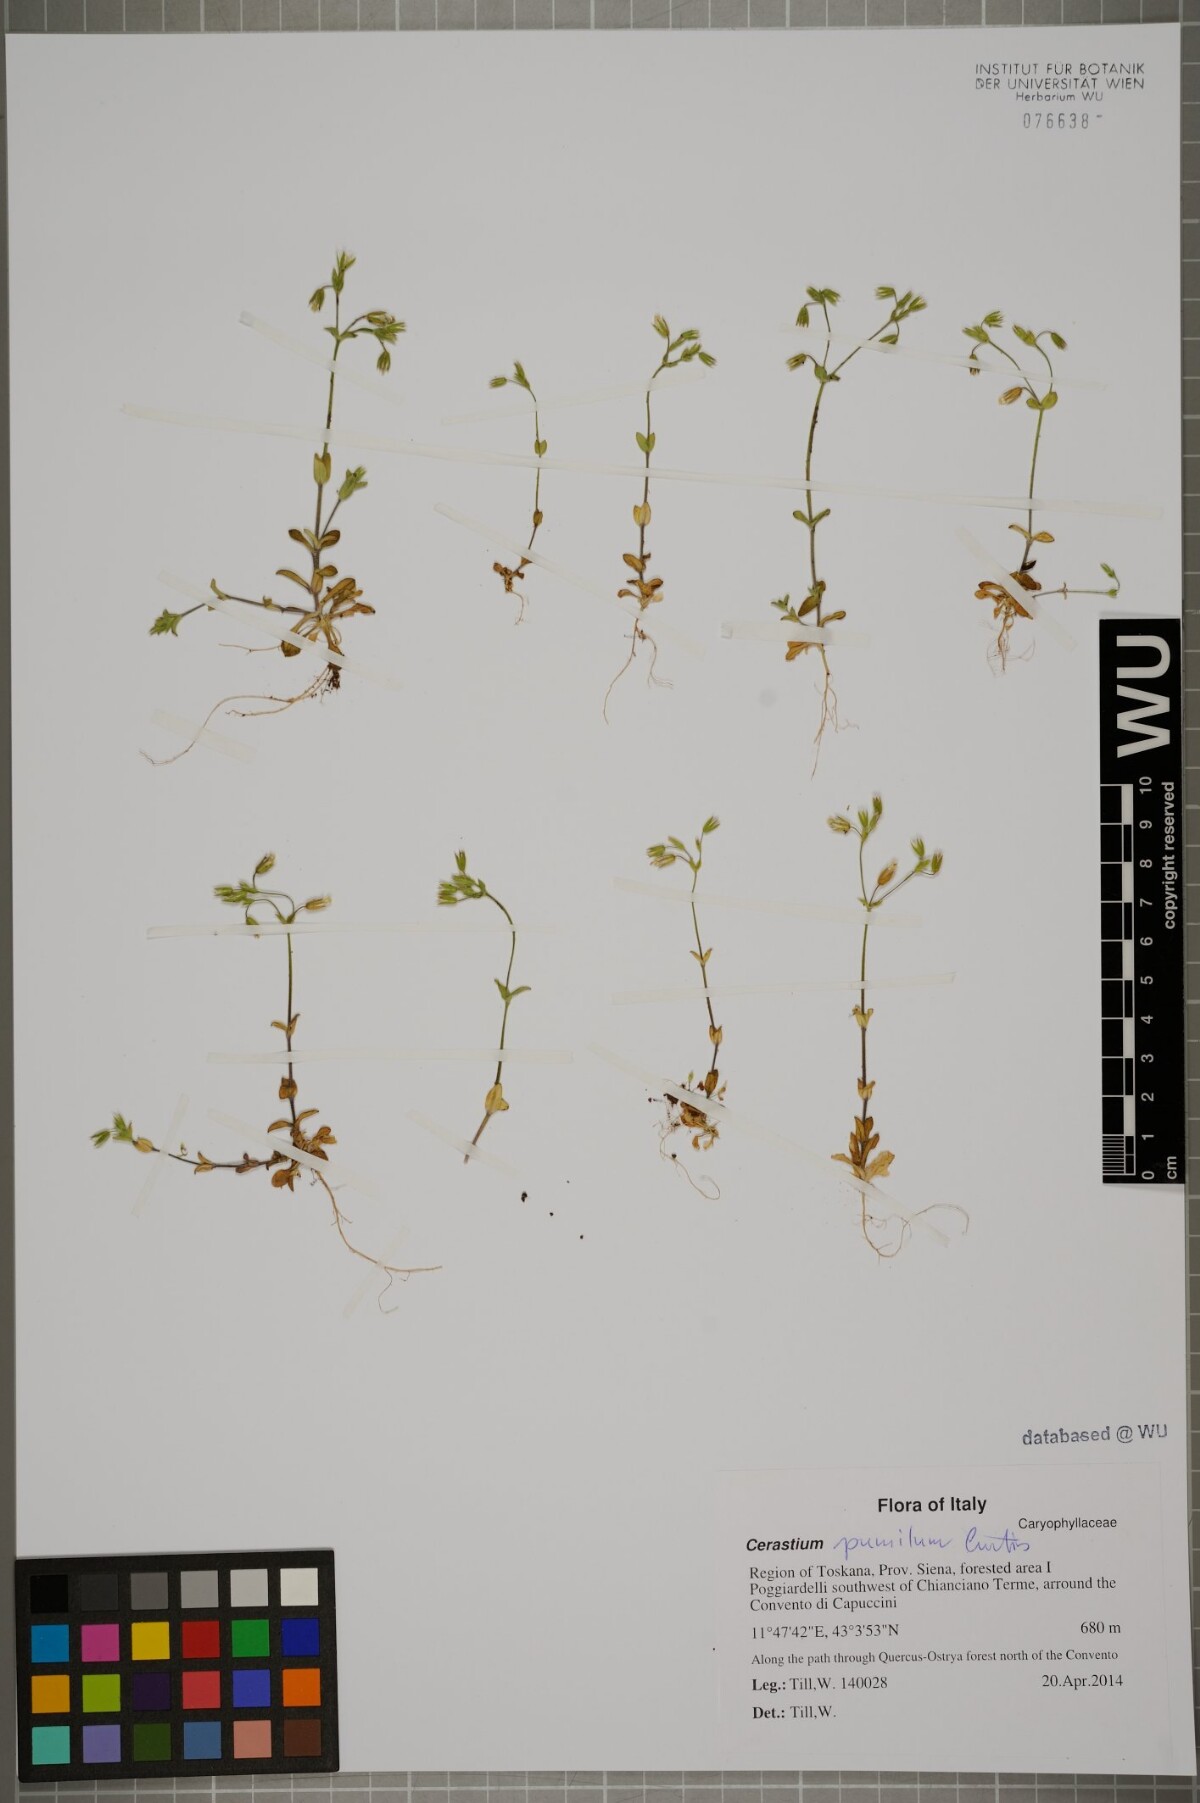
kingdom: Plantae
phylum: Tracheophyta
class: Magnoliopsida
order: Caryophyllales
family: Caryophyllaceae
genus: Cerastium
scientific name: Cerastium pumilum
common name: Dwarf mouse-ear
